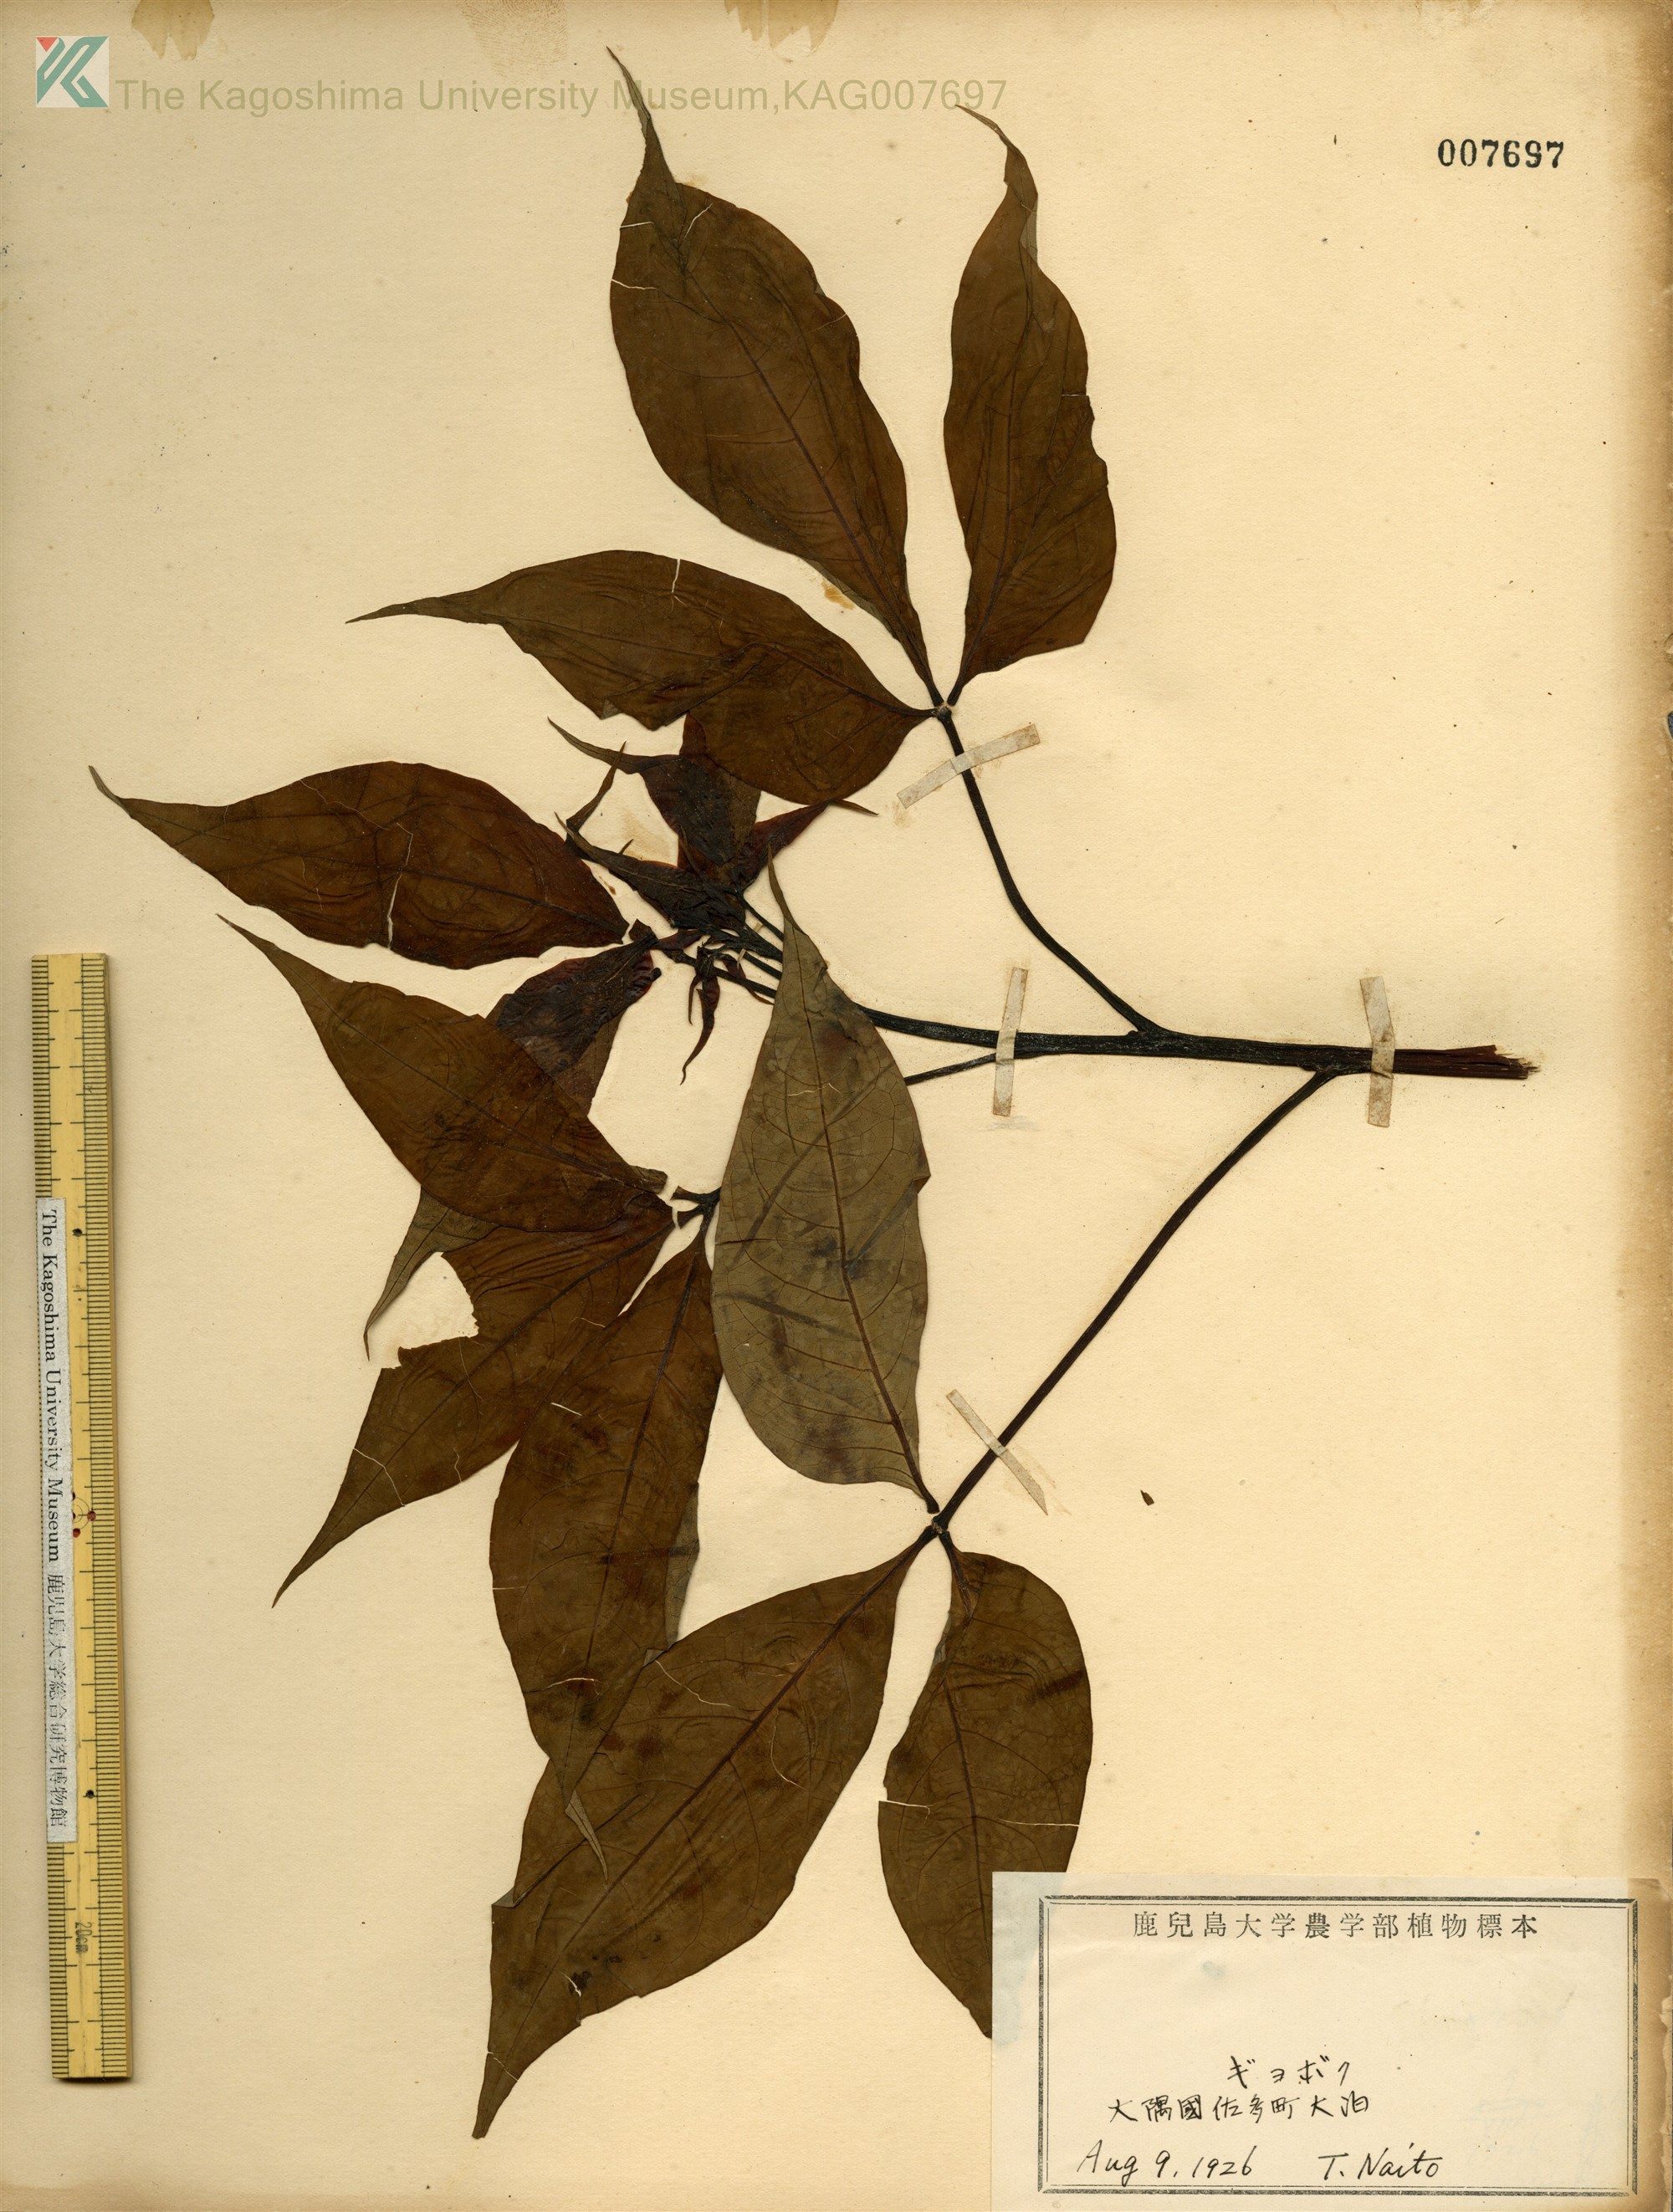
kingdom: Plantae
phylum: Tracheophyta
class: Magnoliopsida
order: Brassicales
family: Capparaceae
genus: Crateva
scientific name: Crateva formosensis
